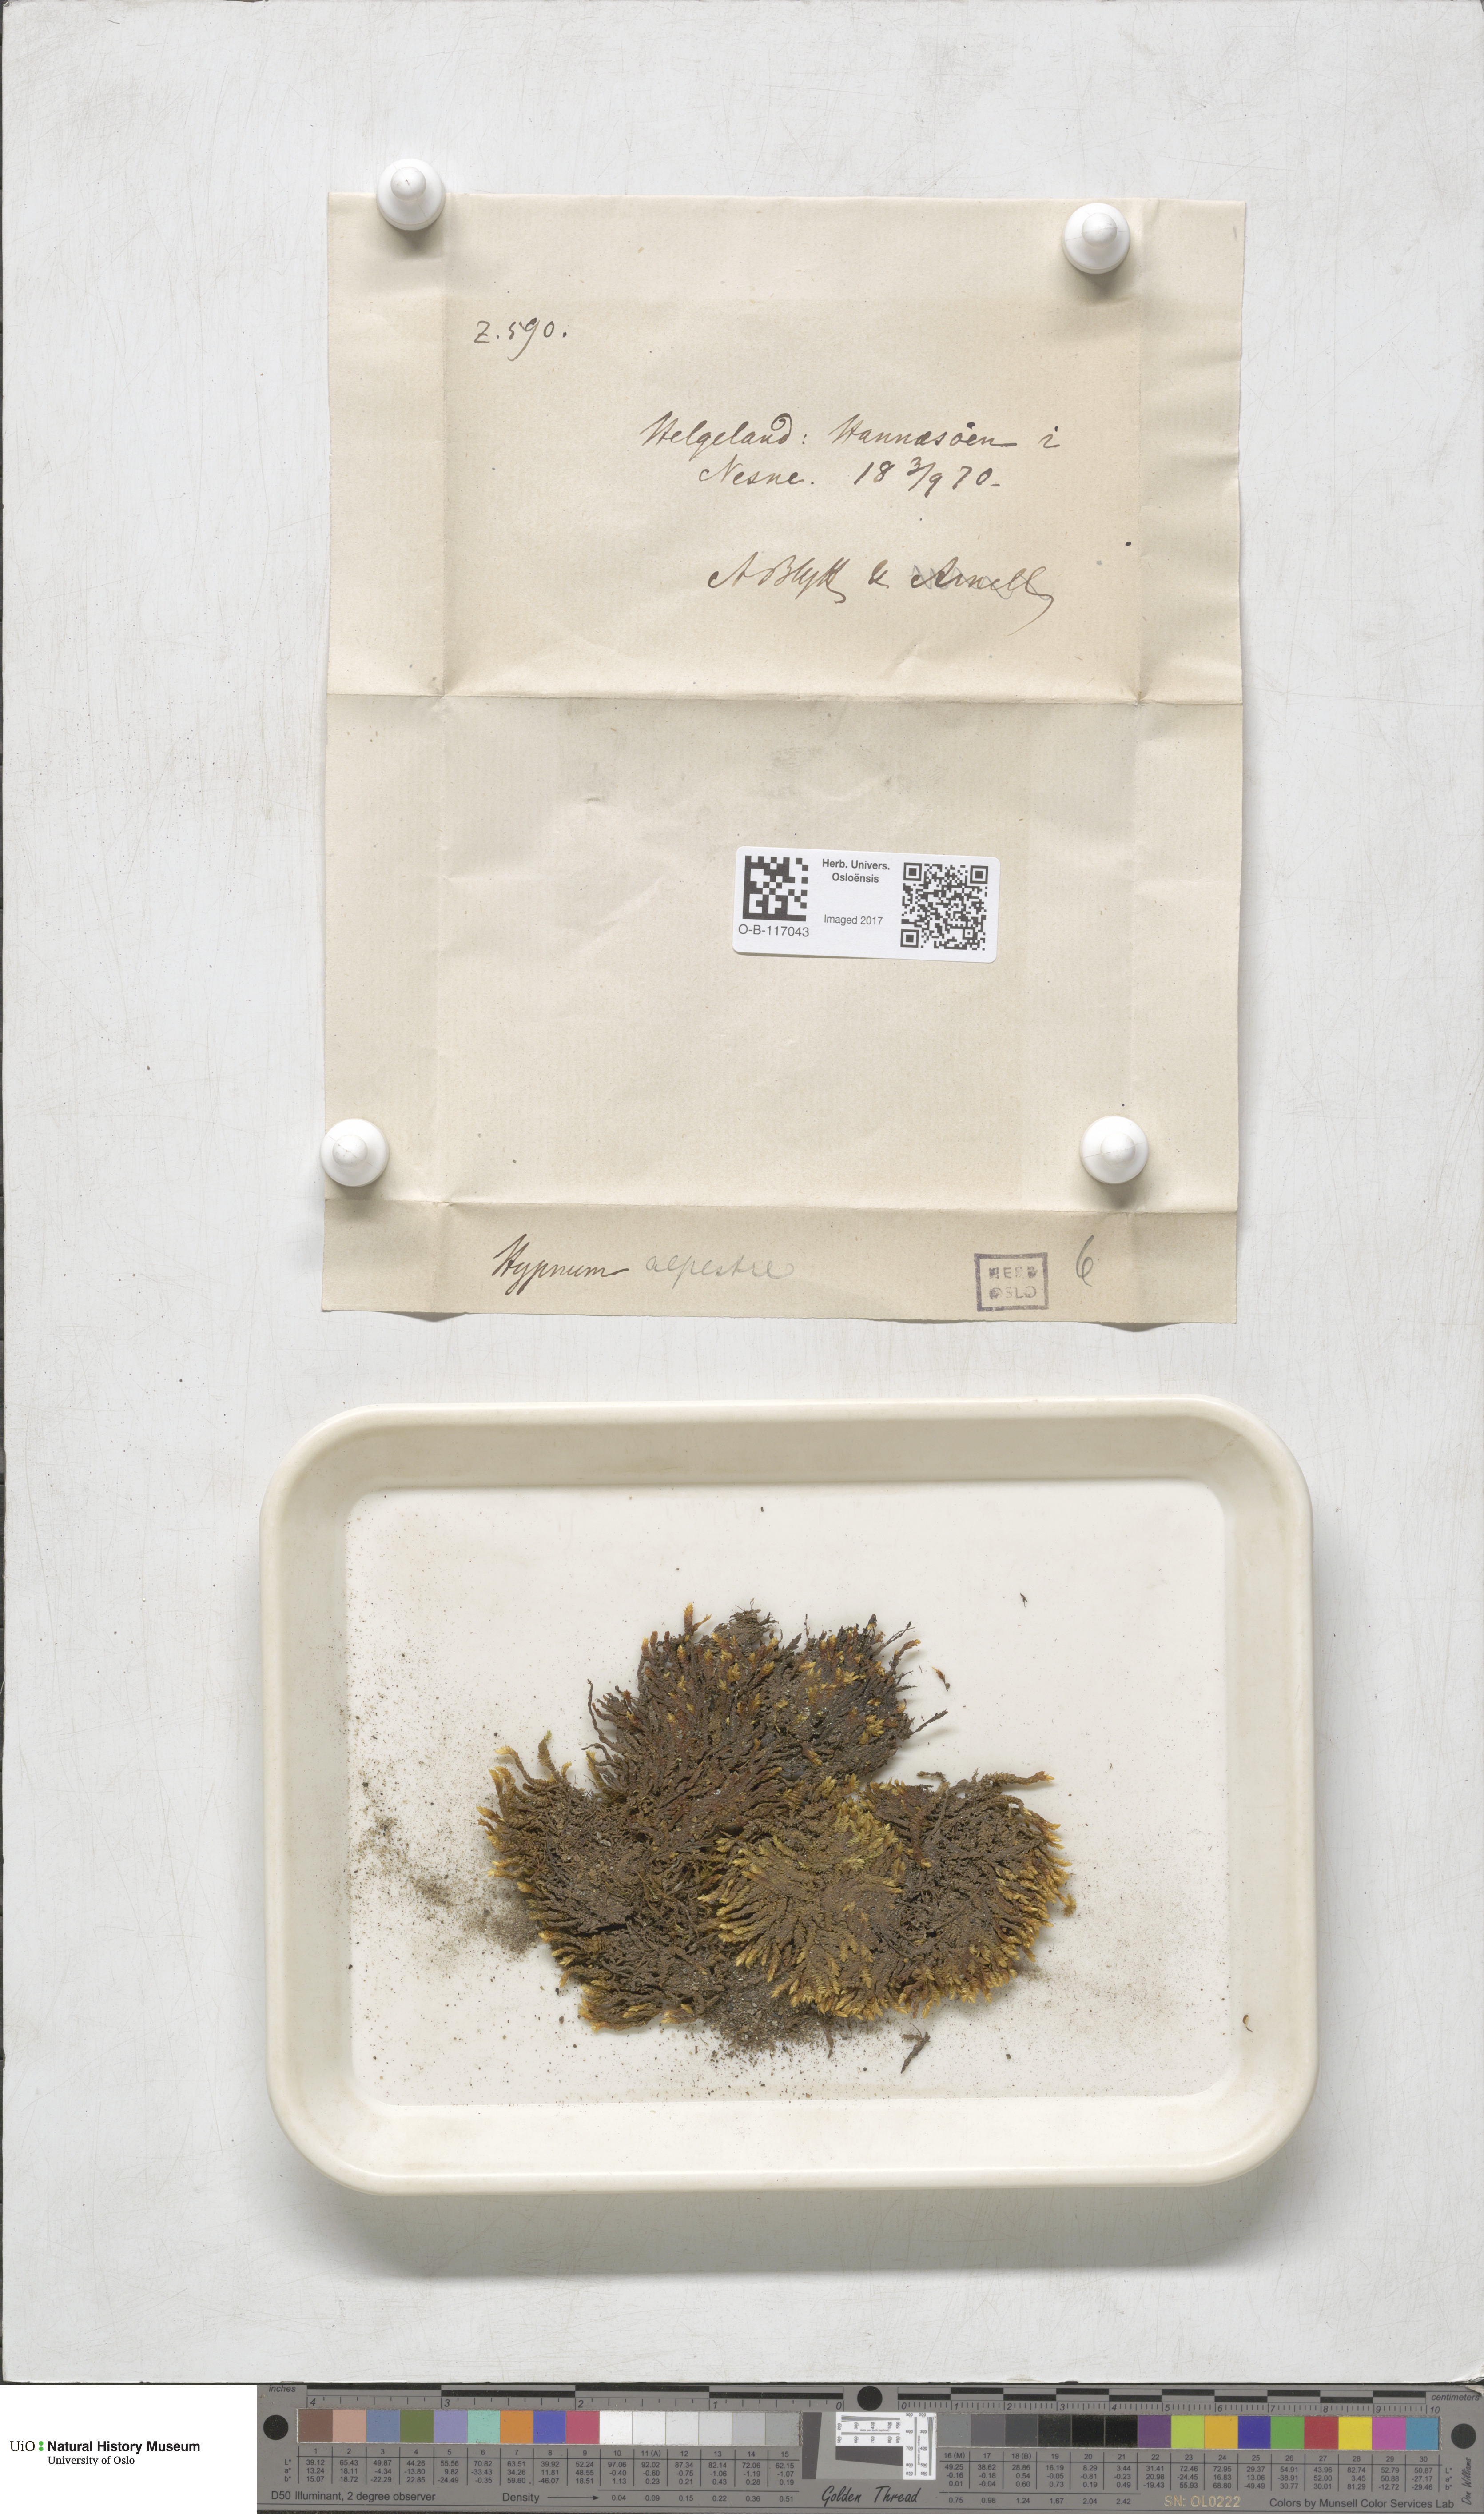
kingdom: Plantae
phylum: Bryophyta
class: Bryopsida
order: Hypnales
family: Amblystegiaceae
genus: Platyhypnum
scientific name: Platyhypnum alpestre
